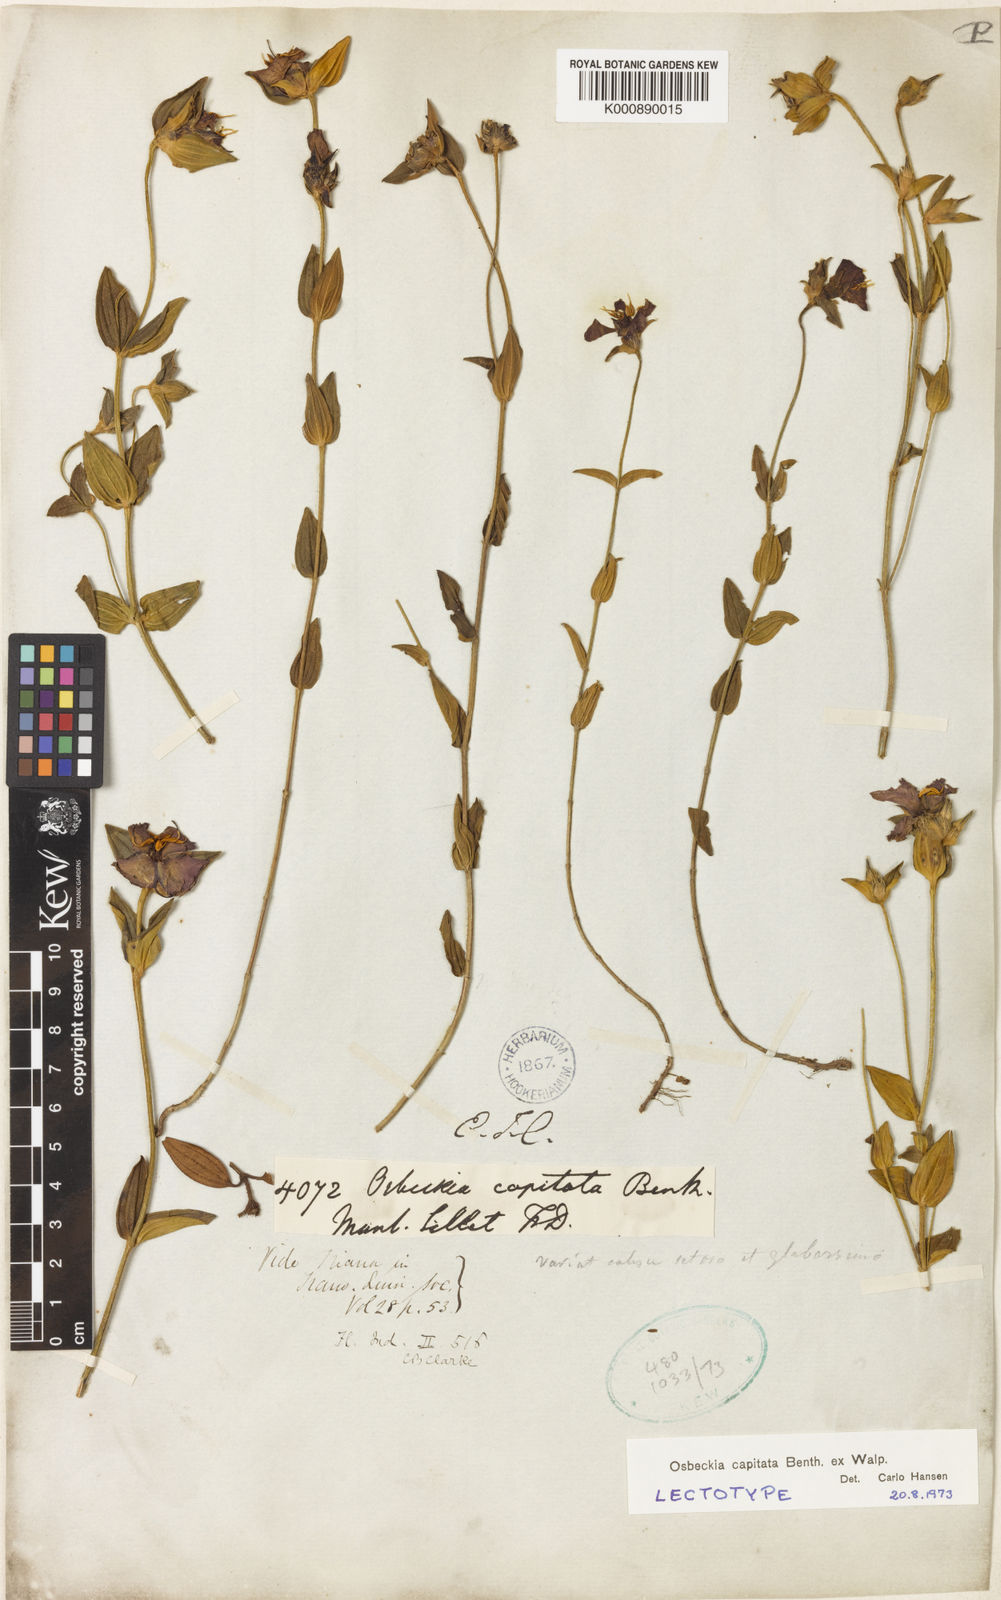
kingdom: Plantae
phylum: Tracheophyta
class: Magnoliopsida
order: Myrtales
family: Melastomataceae
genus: Osbeckia
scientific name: Osbeckia capitata
